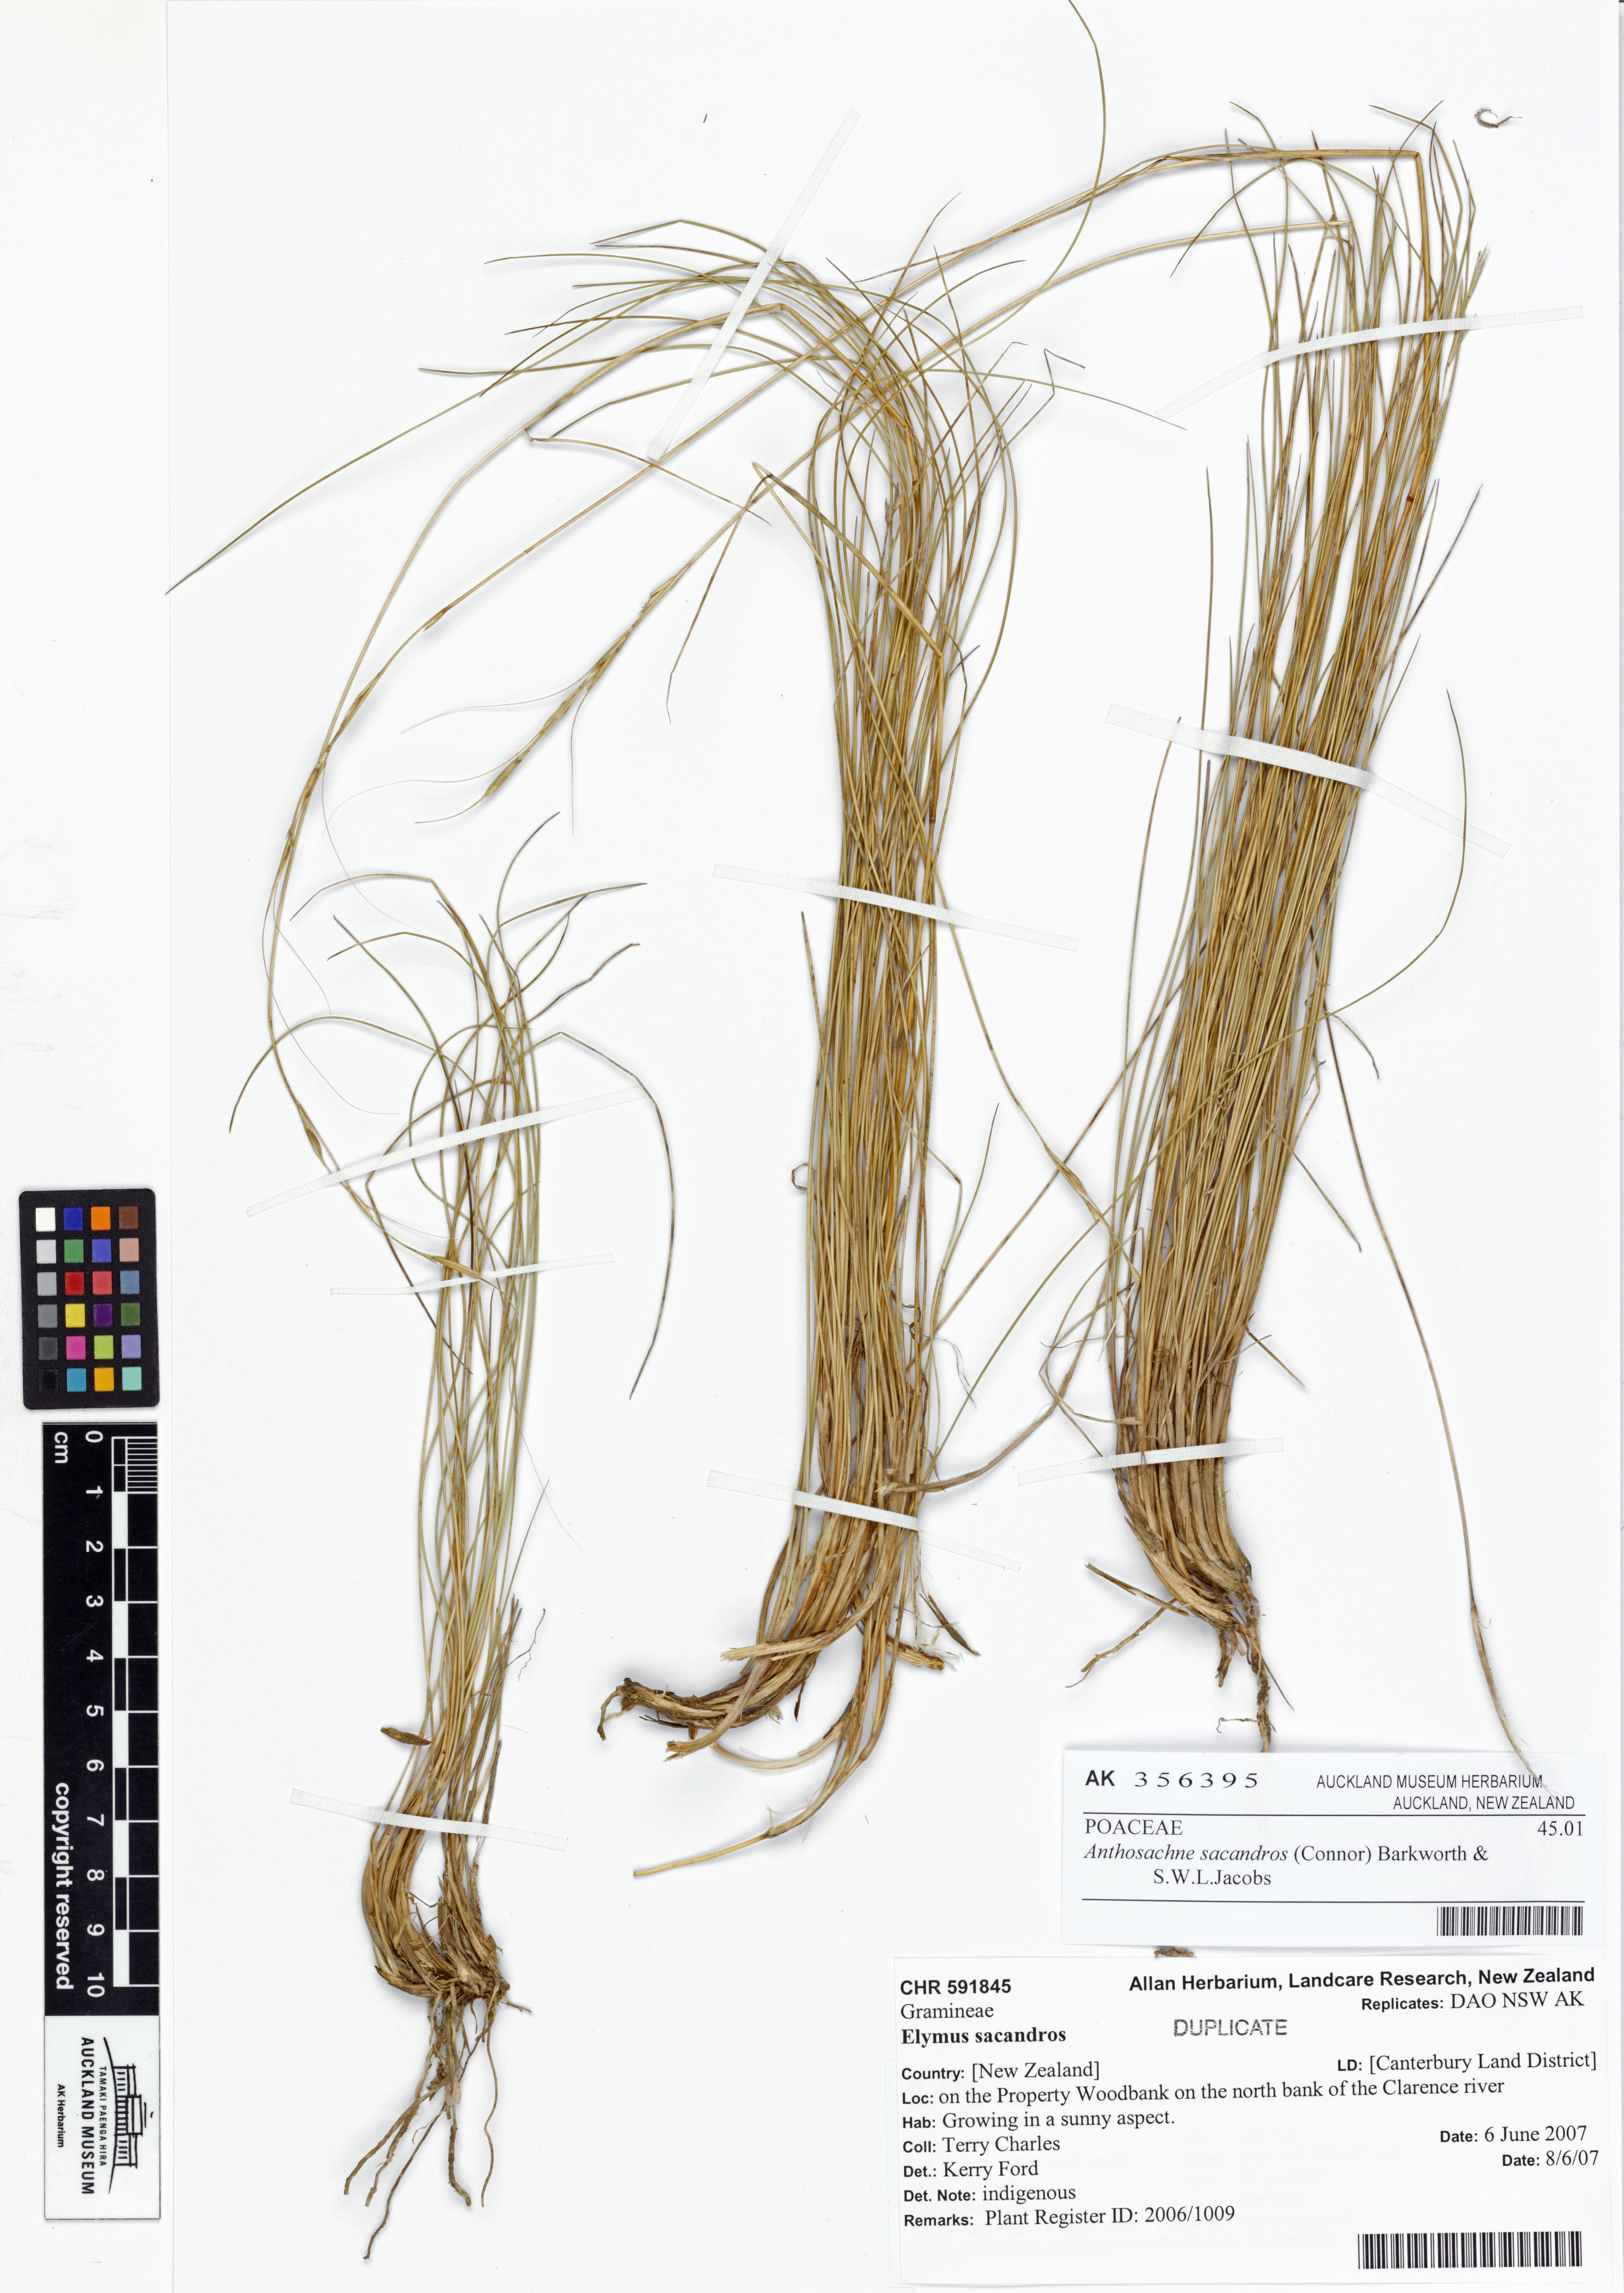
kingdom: Plantae
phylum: Tracheophyta
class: Liliopsida
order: Poales
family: Poaceae
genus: Anthosachne
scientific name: Anthosachne sacandros
